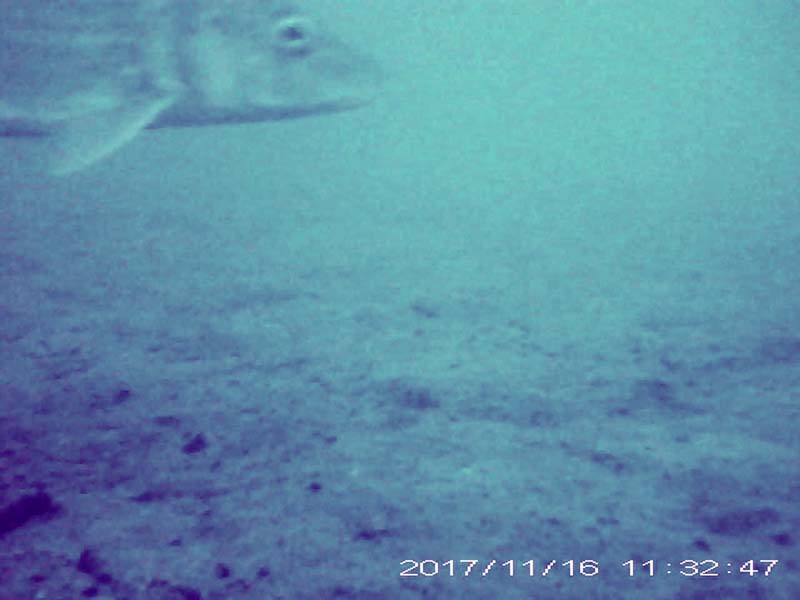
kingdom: Animalia
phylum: Chordata
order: Cypriniformes
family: Cyprinidae
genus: Hemibarbus
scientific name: Hemibarbus labeo
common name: ニゴイ
